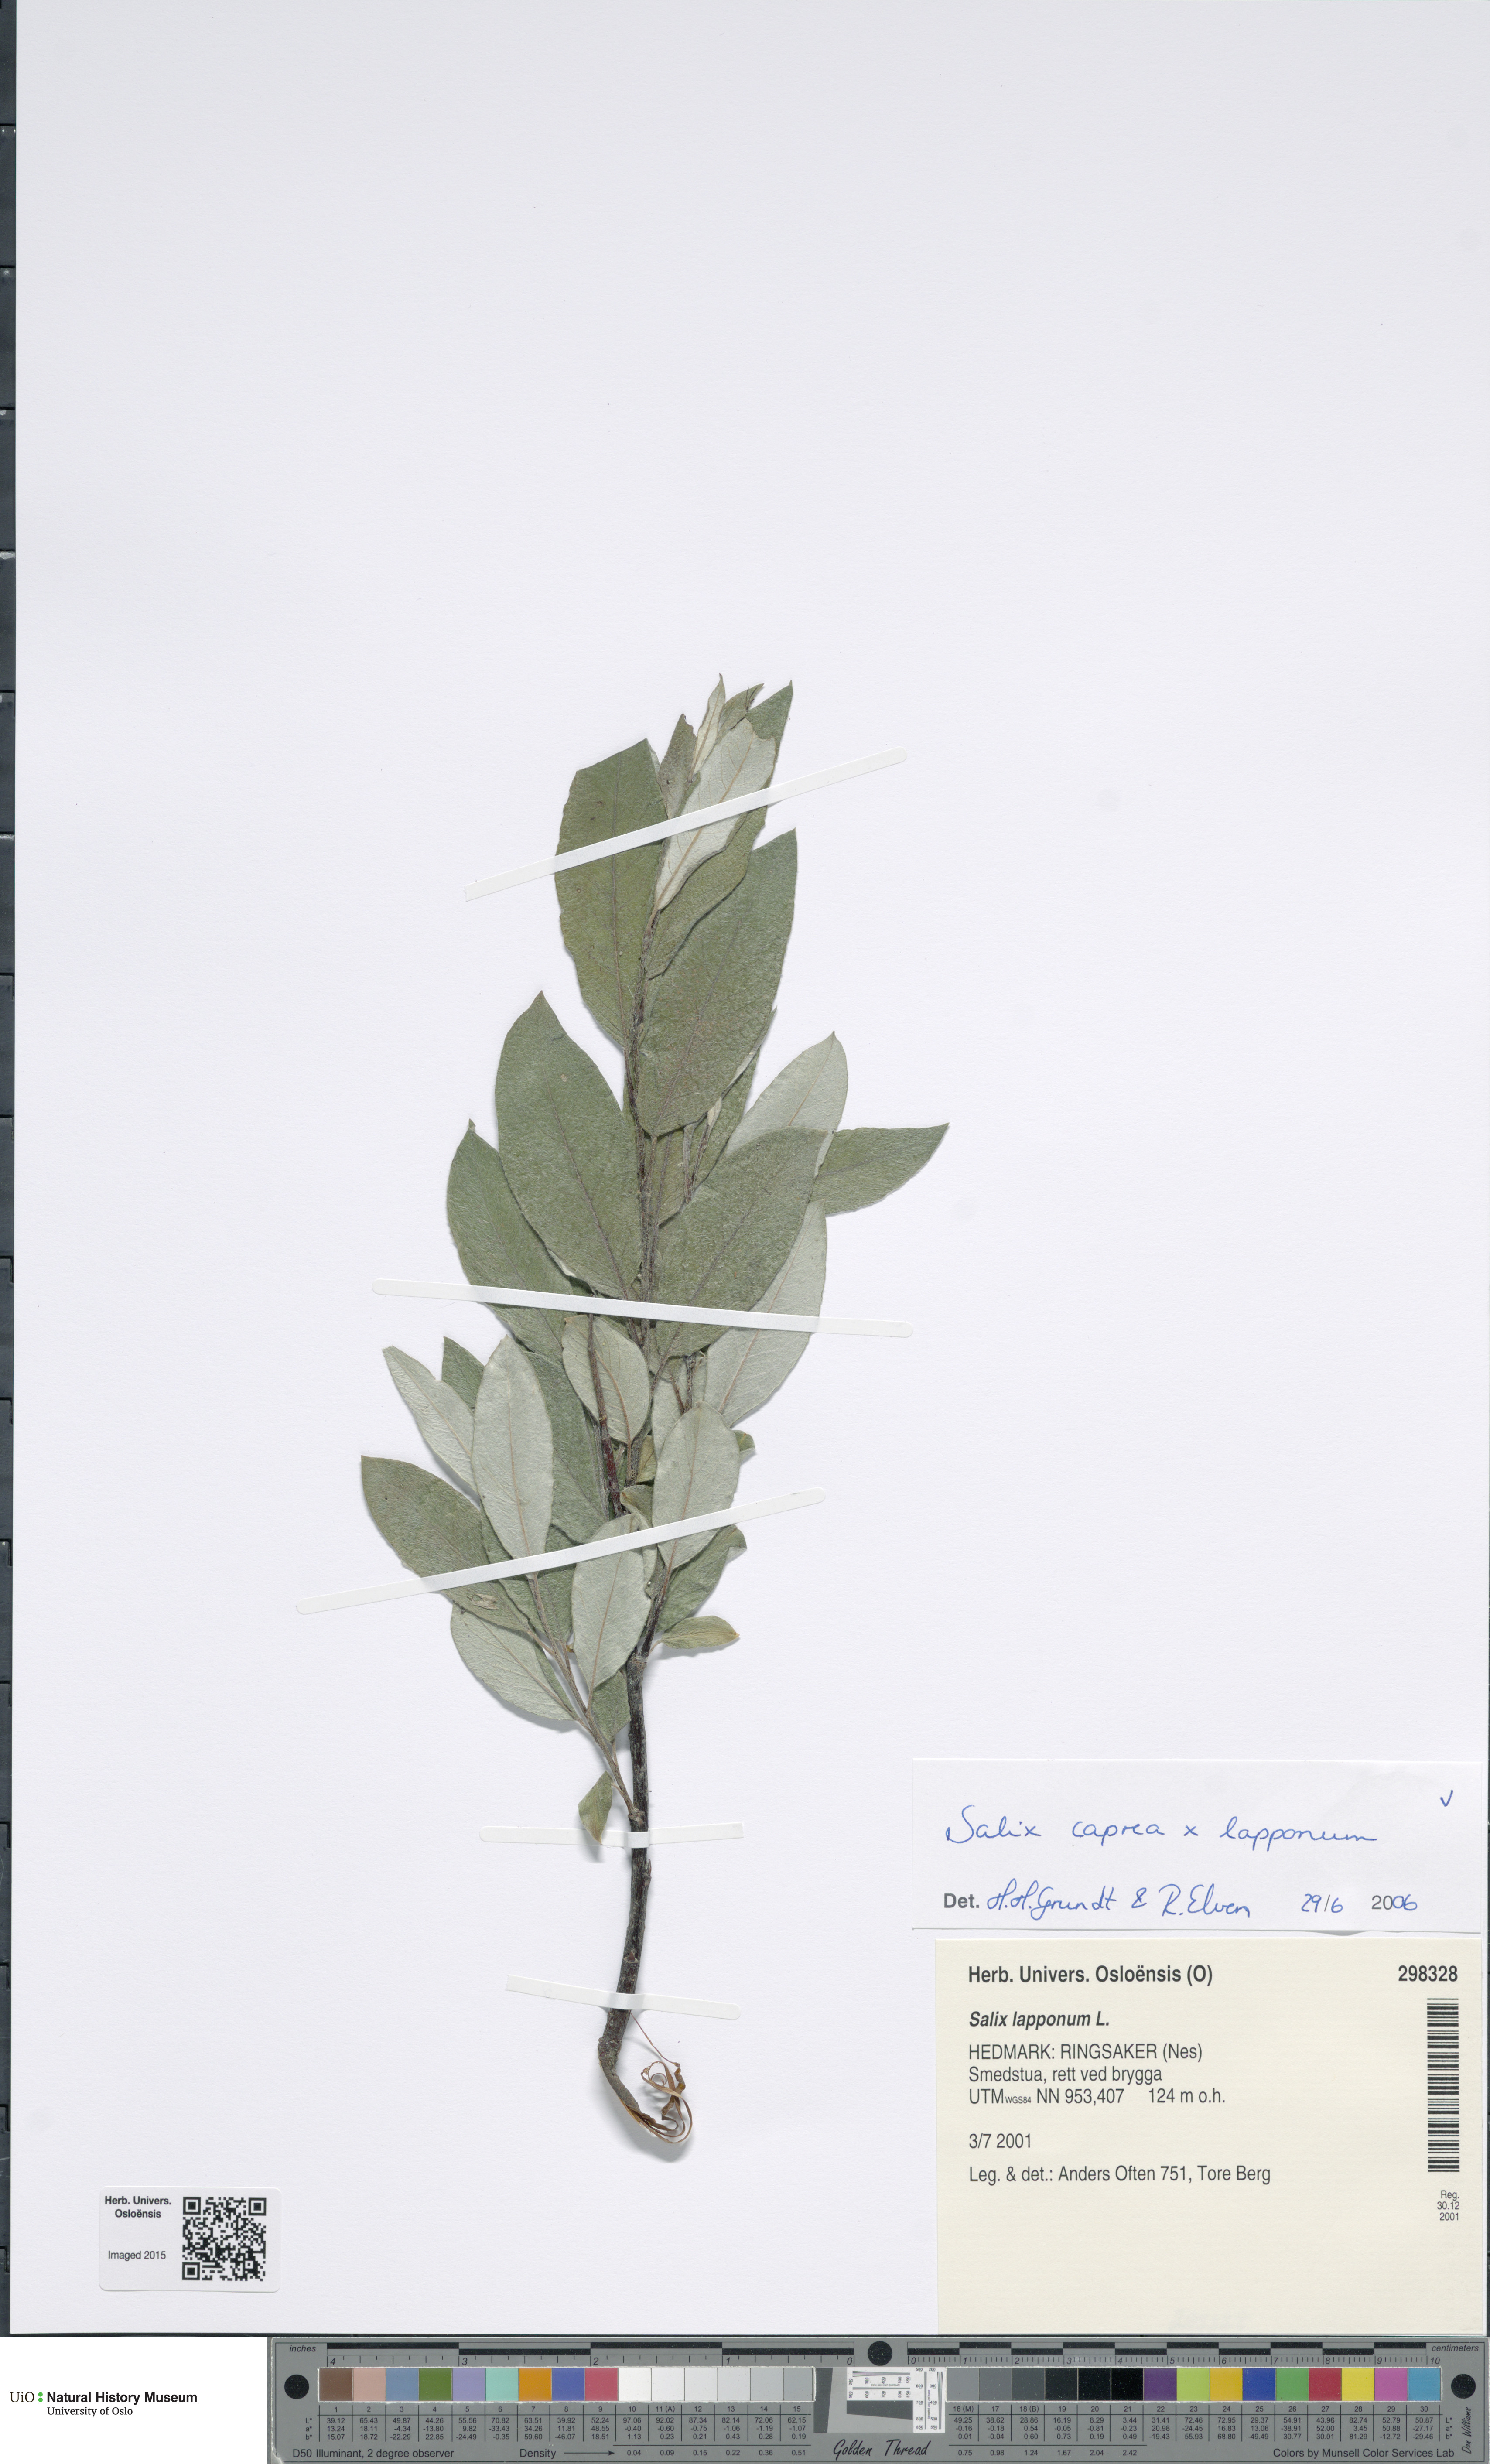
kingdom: Plantae
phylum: Tracheophyta
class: Magnoliopsida
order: Malpighiales
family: Salicaceae
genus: Salix
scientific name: Salix
